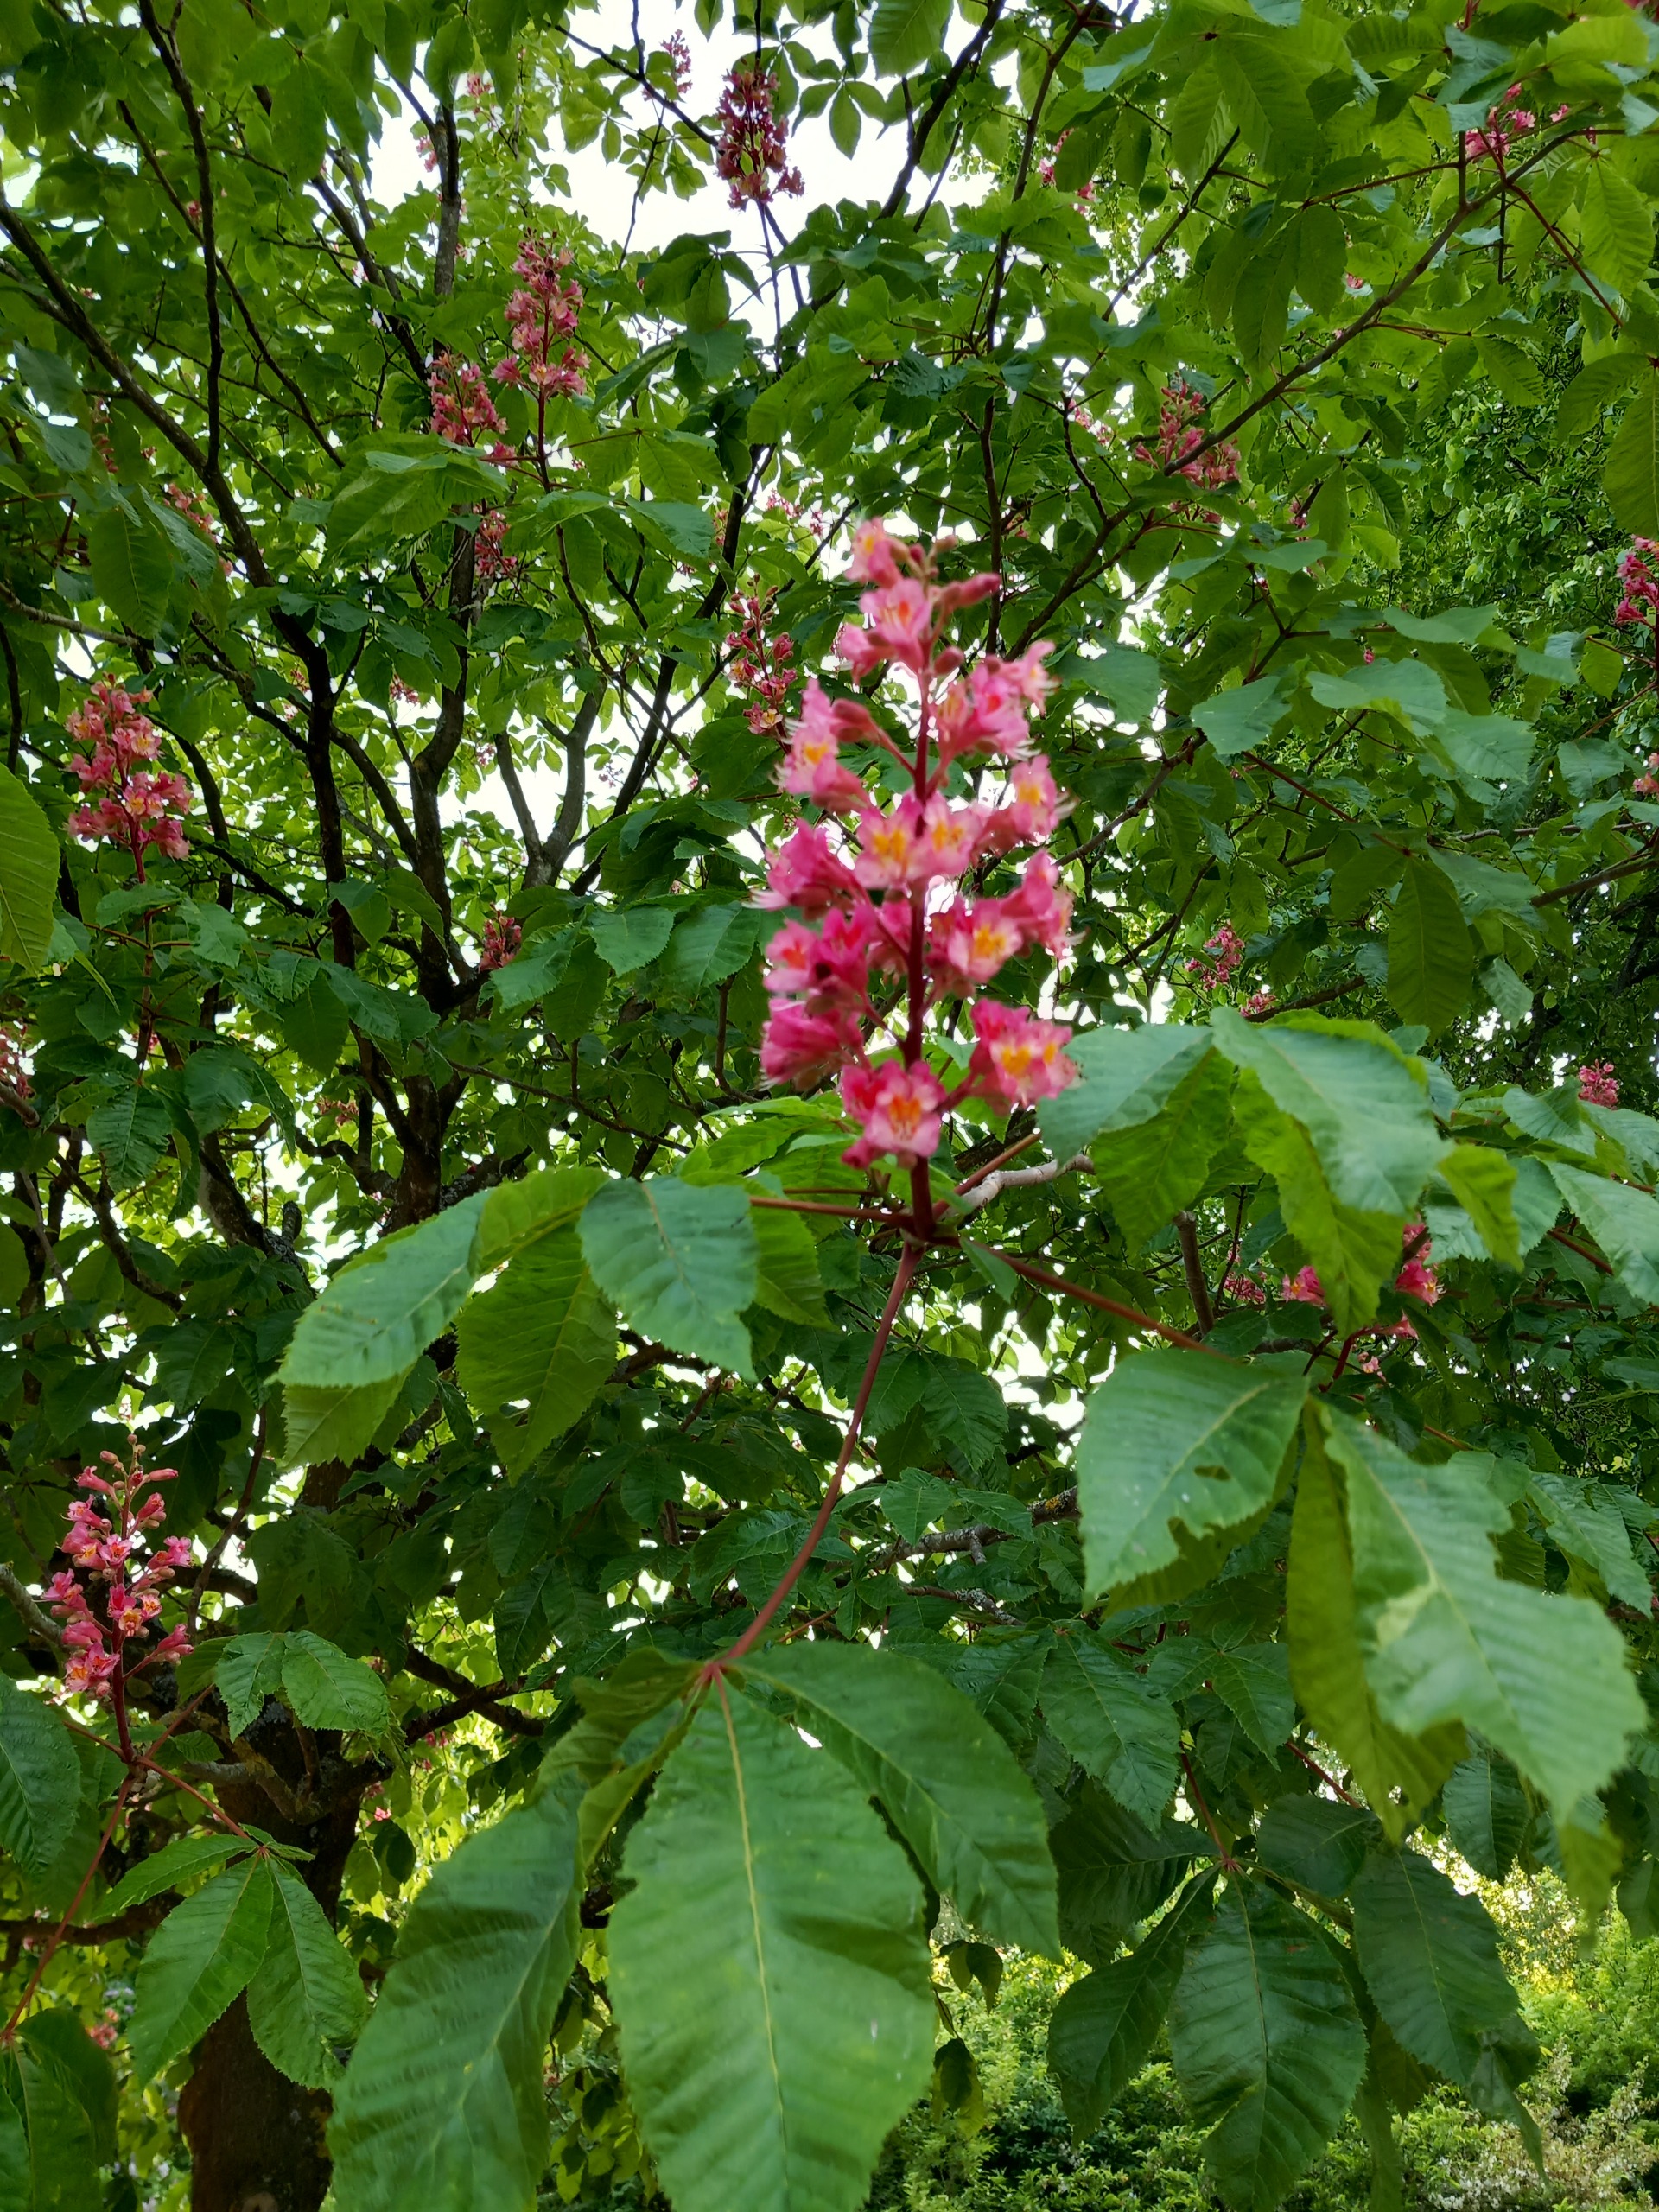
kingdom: Plantae
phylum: Tracheophyta
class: Magnoliopsida
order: Sapindales
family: Sapindaceae
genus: Aesculus
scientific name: Aesculus hippocastanum
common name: Hestekastanie
